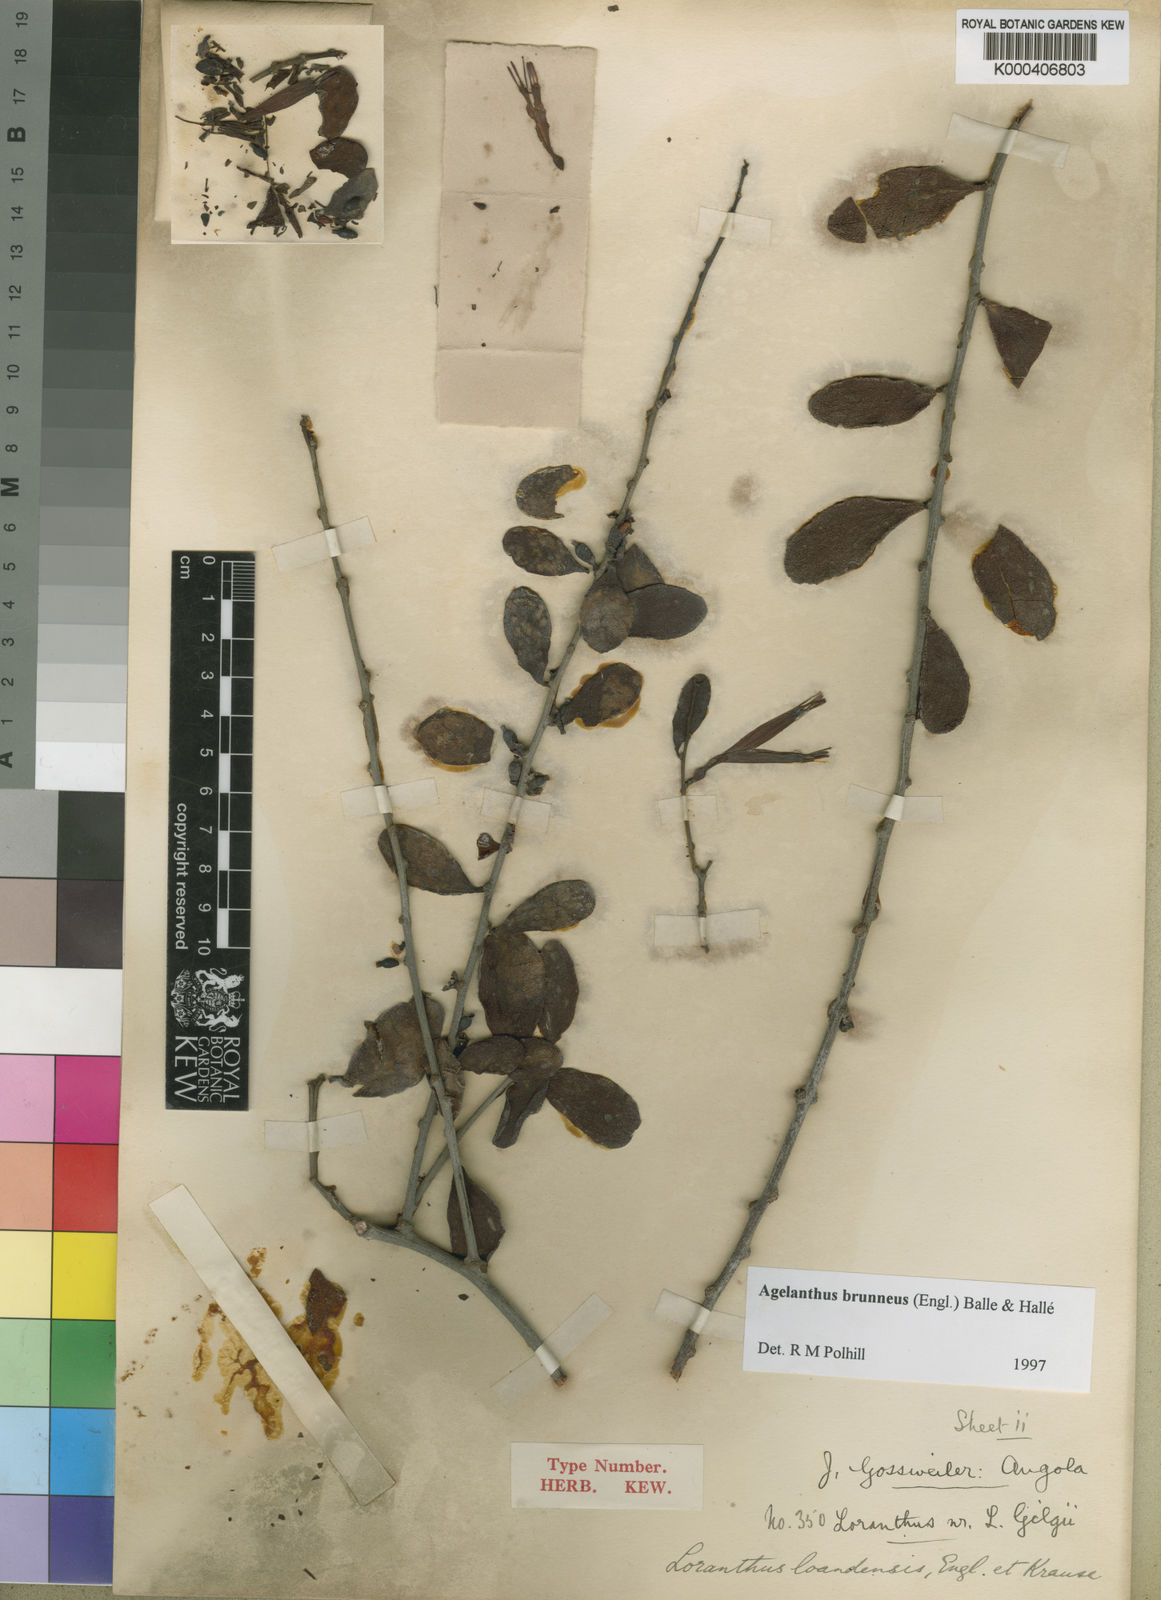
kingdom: Plantae
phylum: Tracheophyta
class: Magnoliopsida
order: Santalales
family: Loranthaceae
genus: Agelanthus
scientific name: Agelanthus
